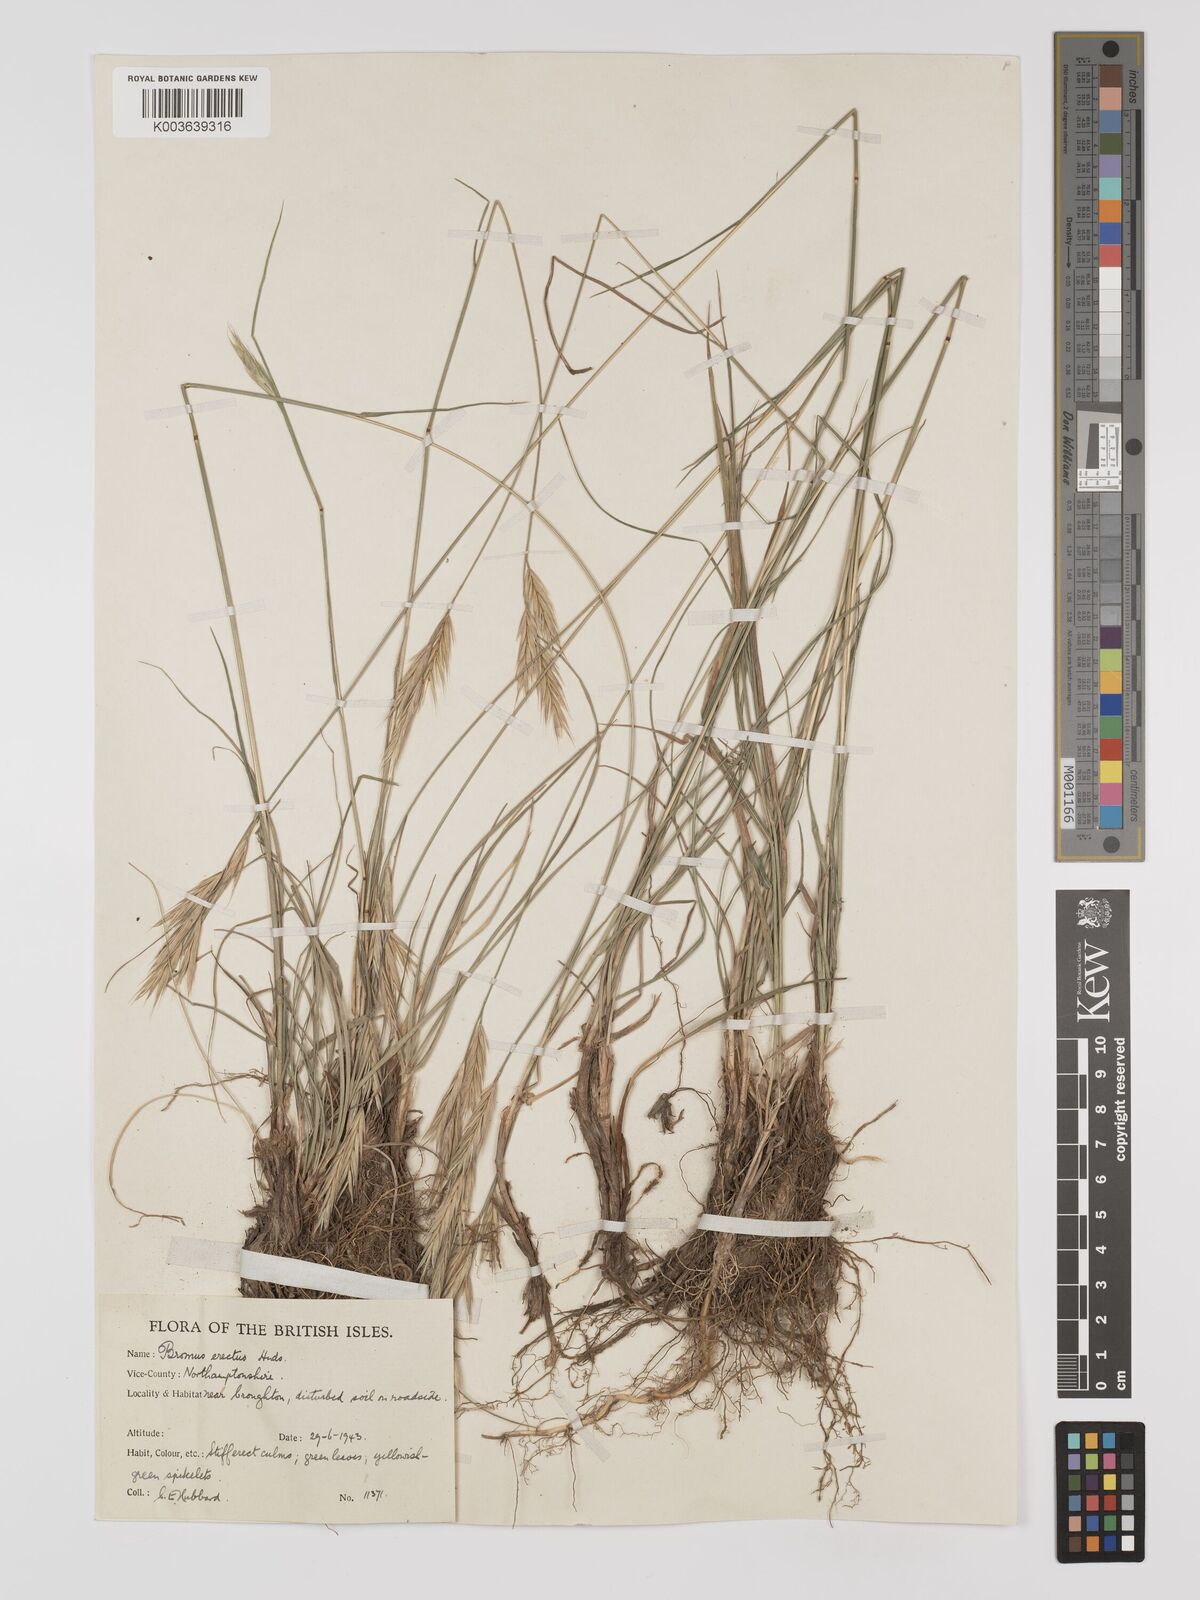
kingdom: Plantae
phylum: Tracheophyta
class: Liliopsida
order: Poales
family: Poaceae
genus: Bromus
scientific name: Bromus erectus
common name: Erect brome
